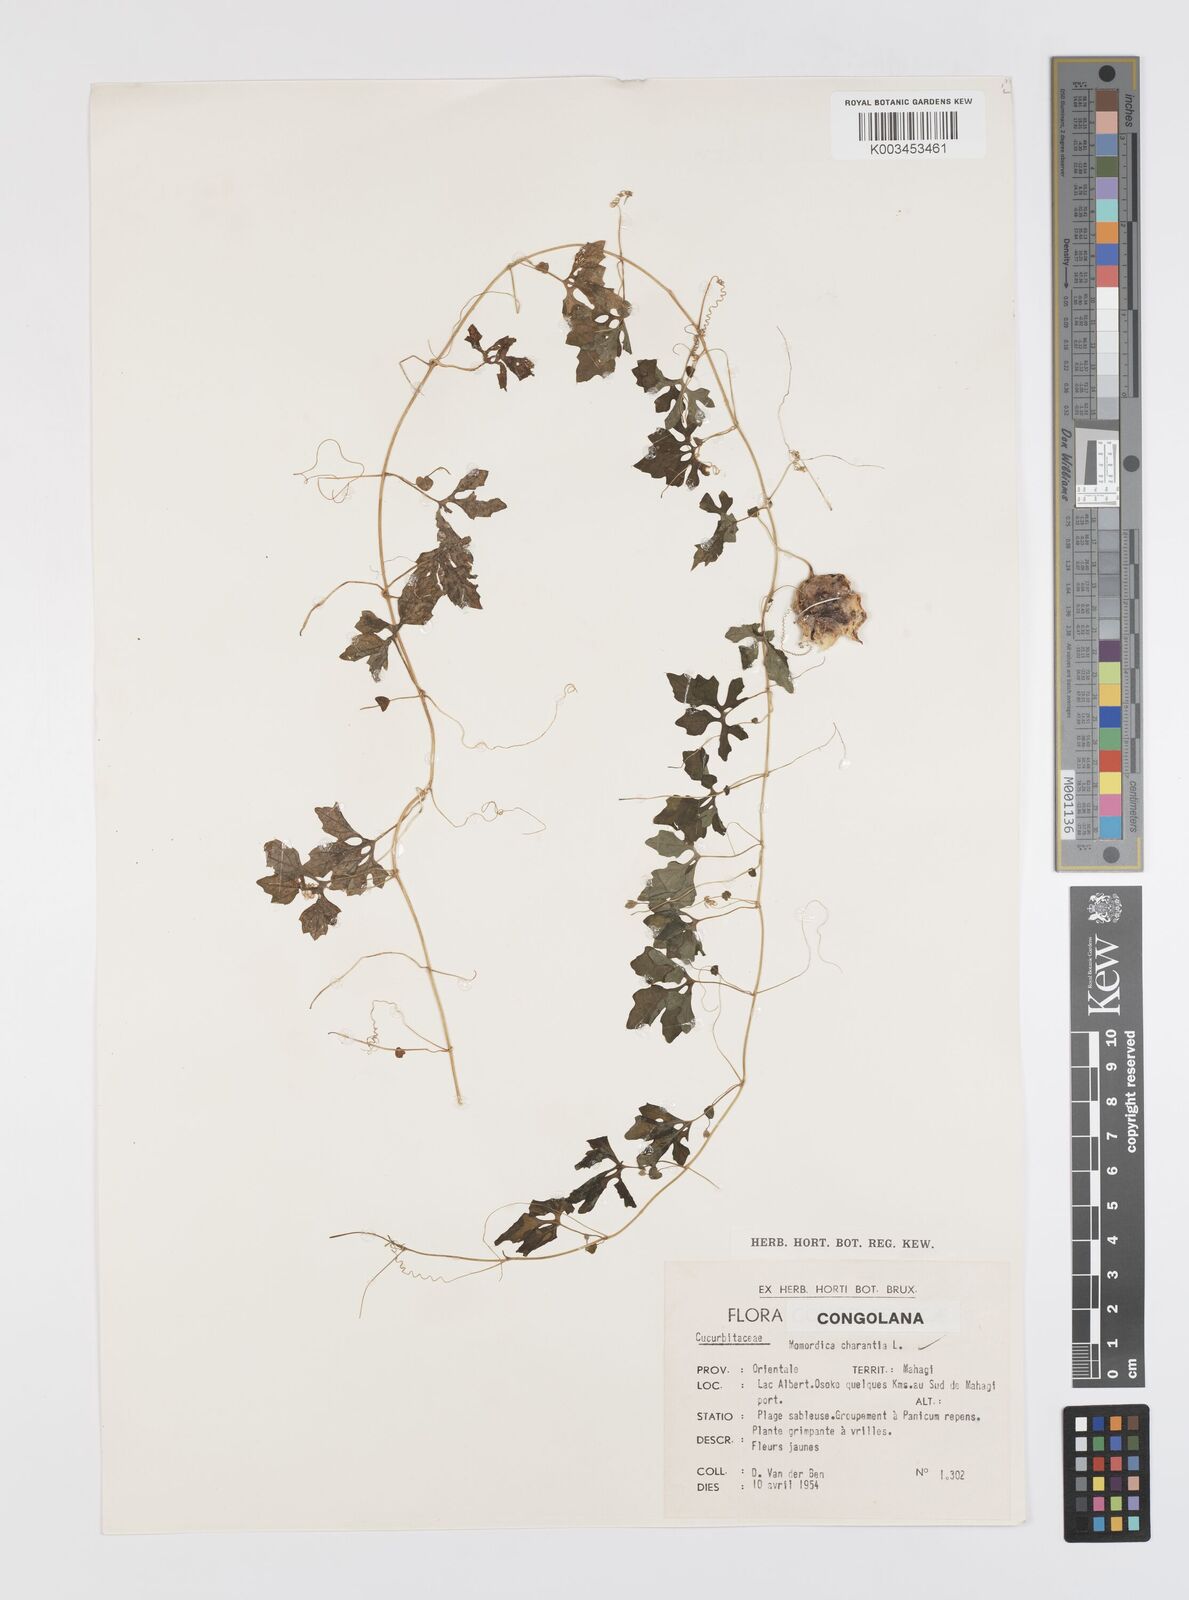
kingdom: Plantae
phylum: Tracheophyta
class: Magnoliopsida
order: Cucurbitales
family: Cucurbitaceae
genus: Momordica
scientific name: Momordica charantia
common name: Balsampear
